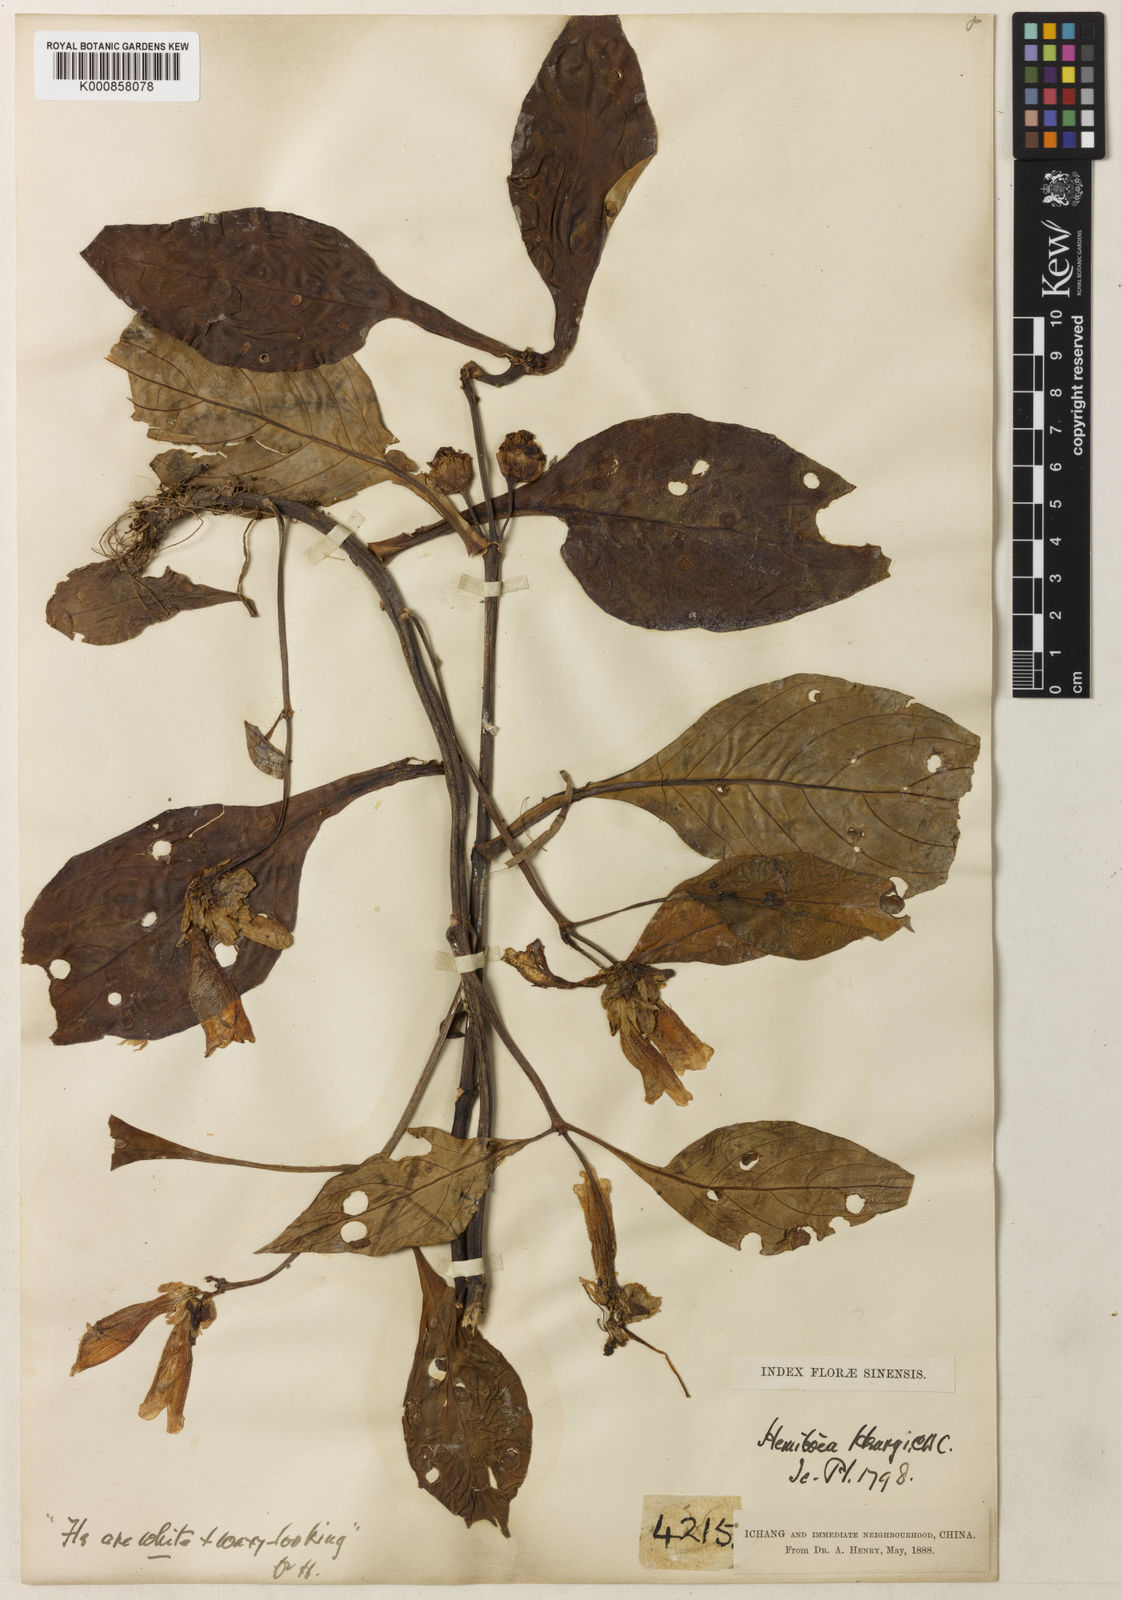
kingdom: Plantae
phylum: Tracheophyta
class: Magnoliopsida
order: Lamiales
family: Gesneriaceae
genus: Hemiboea
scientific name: Hemiboea subcapitata
